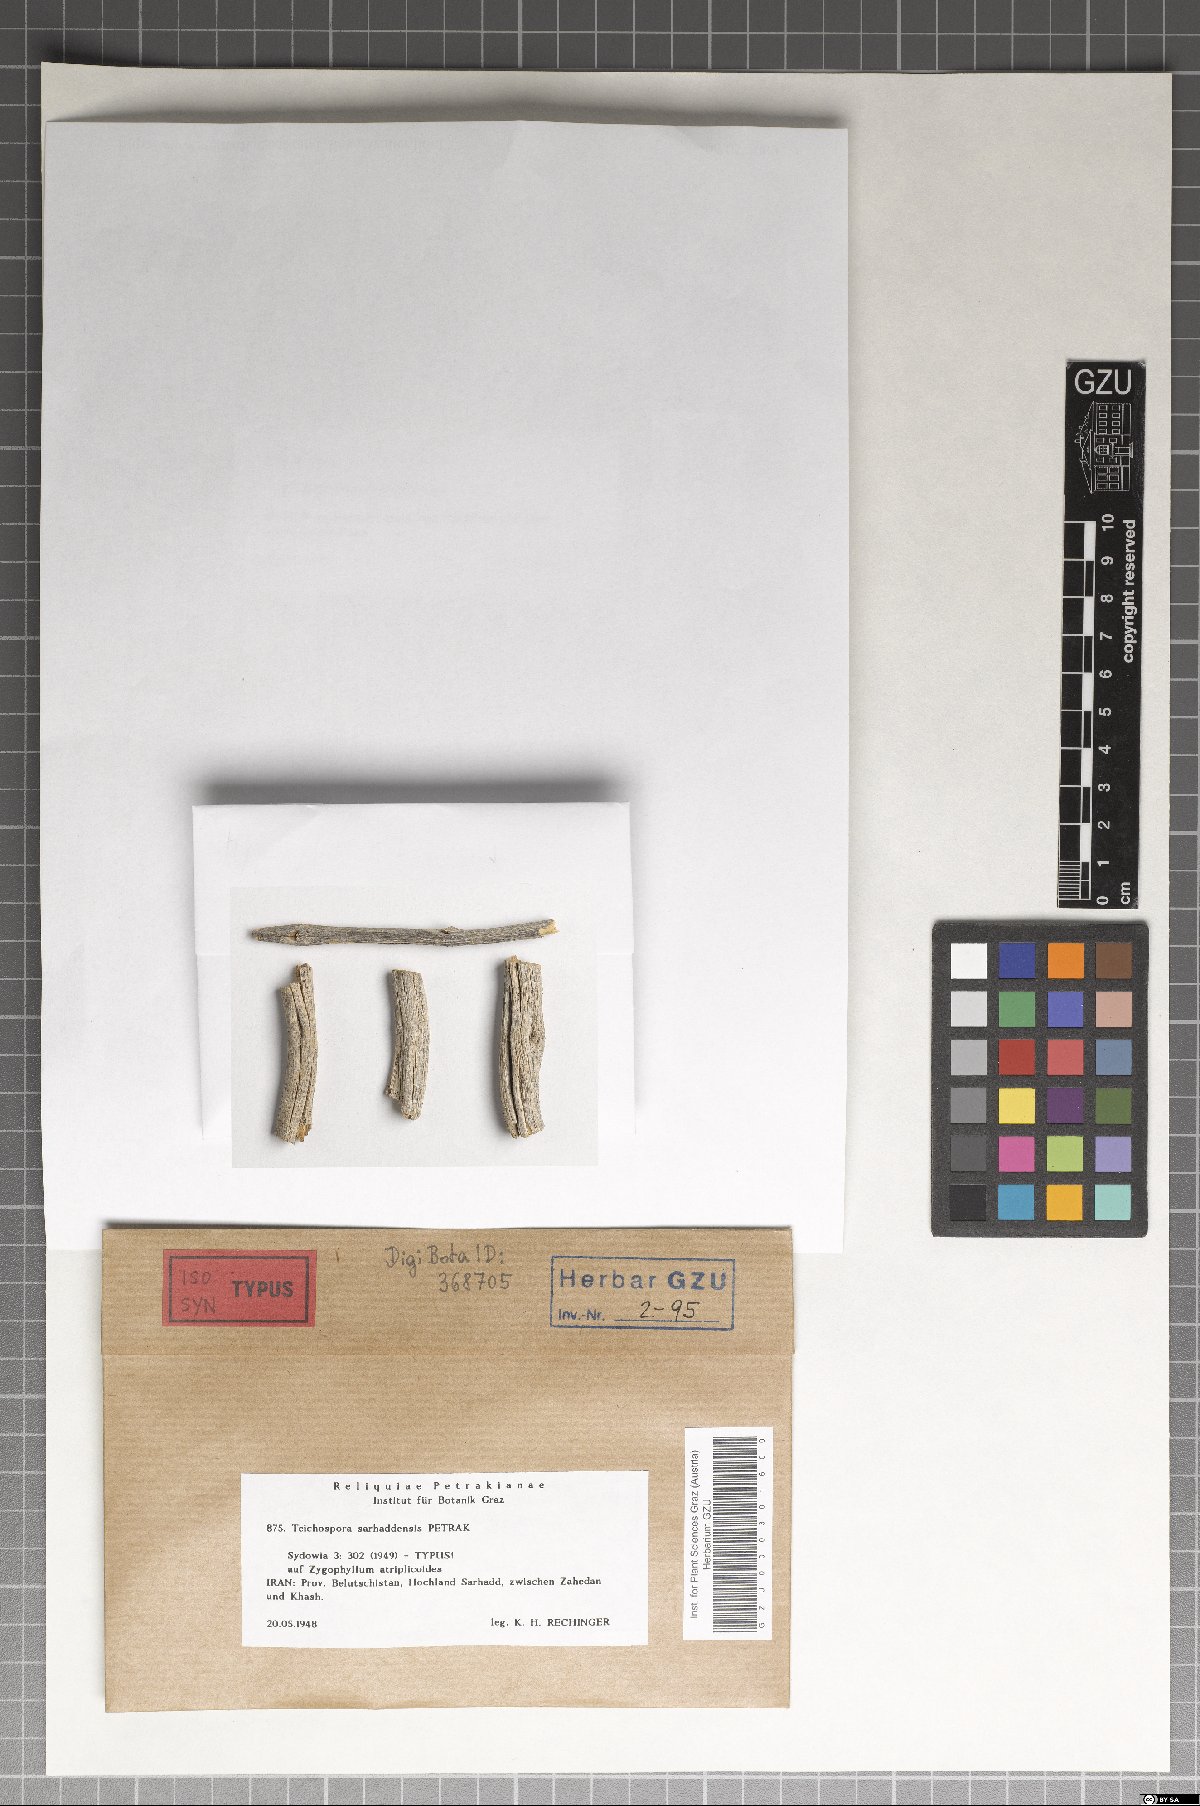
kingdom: Fungi
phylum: Ascomycota
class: Sordariomycetes
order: Amphisphaeriales
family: Sporocadaceae
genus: Strickeria
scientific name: Strickeria sarhaddensis
